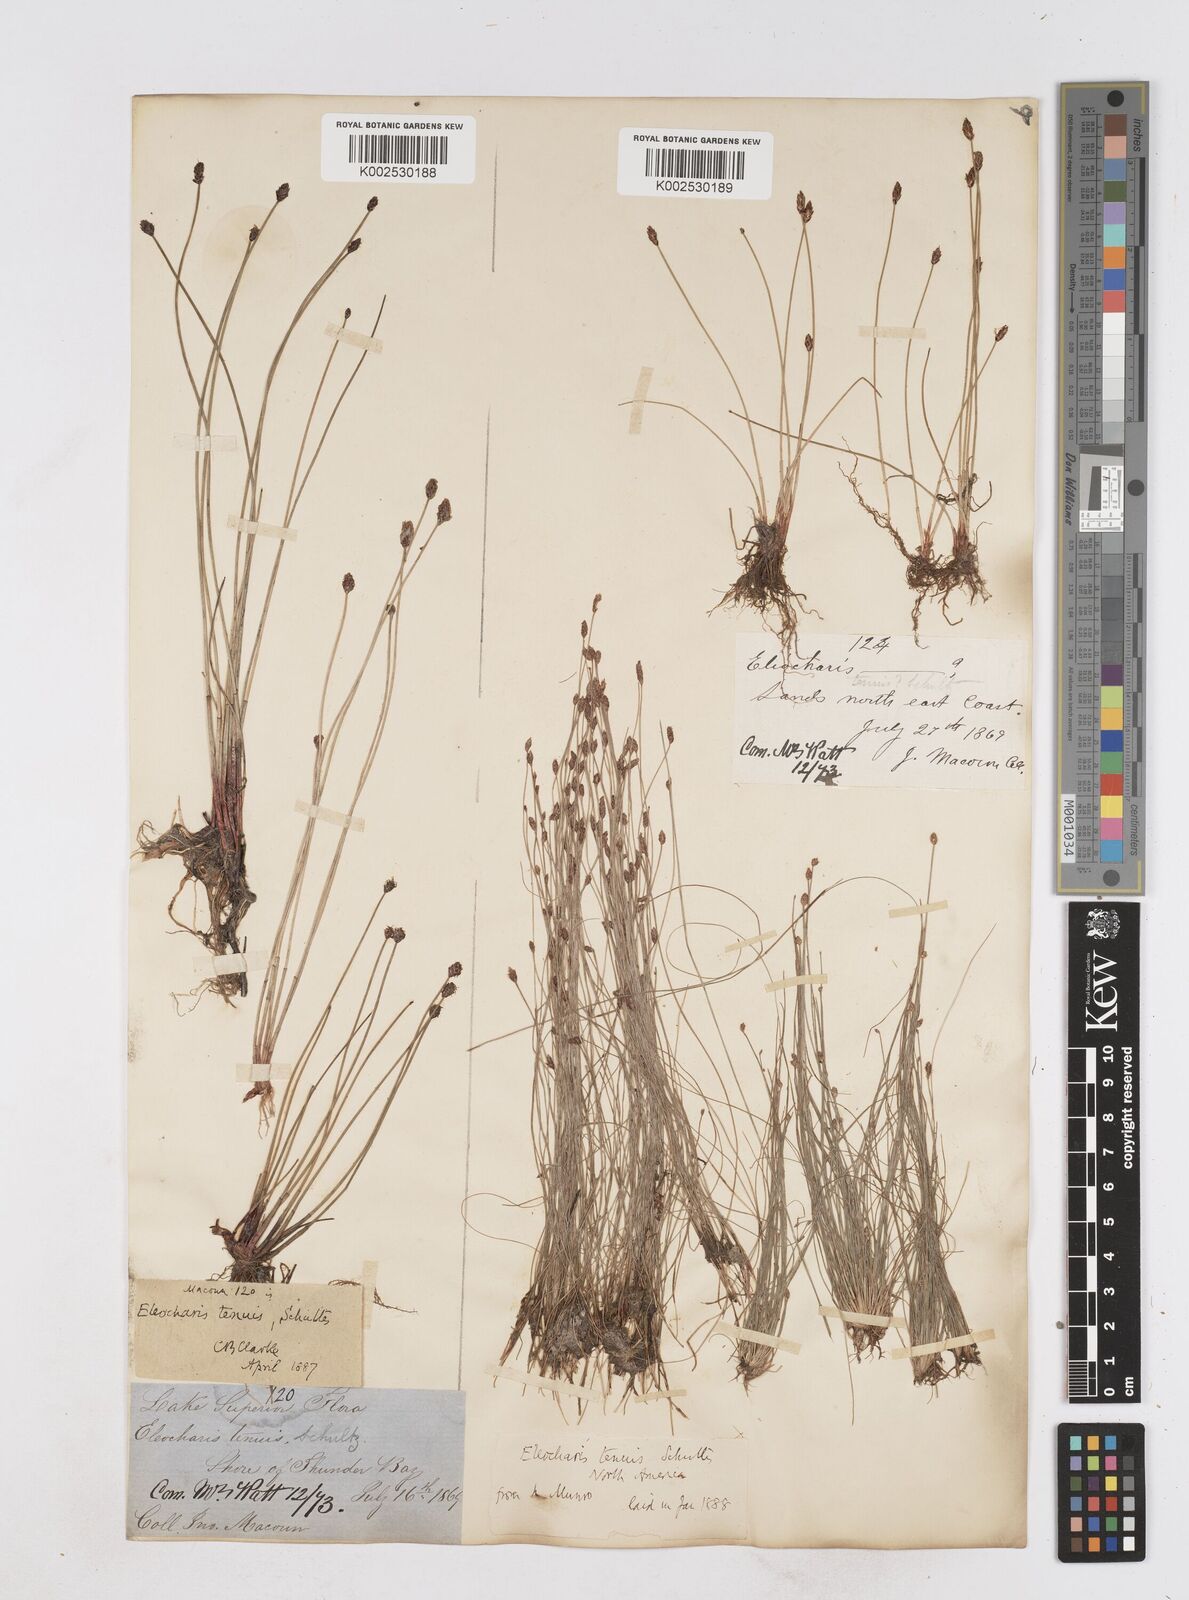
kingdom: Plantae
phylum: Tracheophyta
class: Liliopsida
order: Poales
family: Cyperaceae
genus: Eleocharis
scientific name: Eleocharis tenuis
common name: Dog's hair
